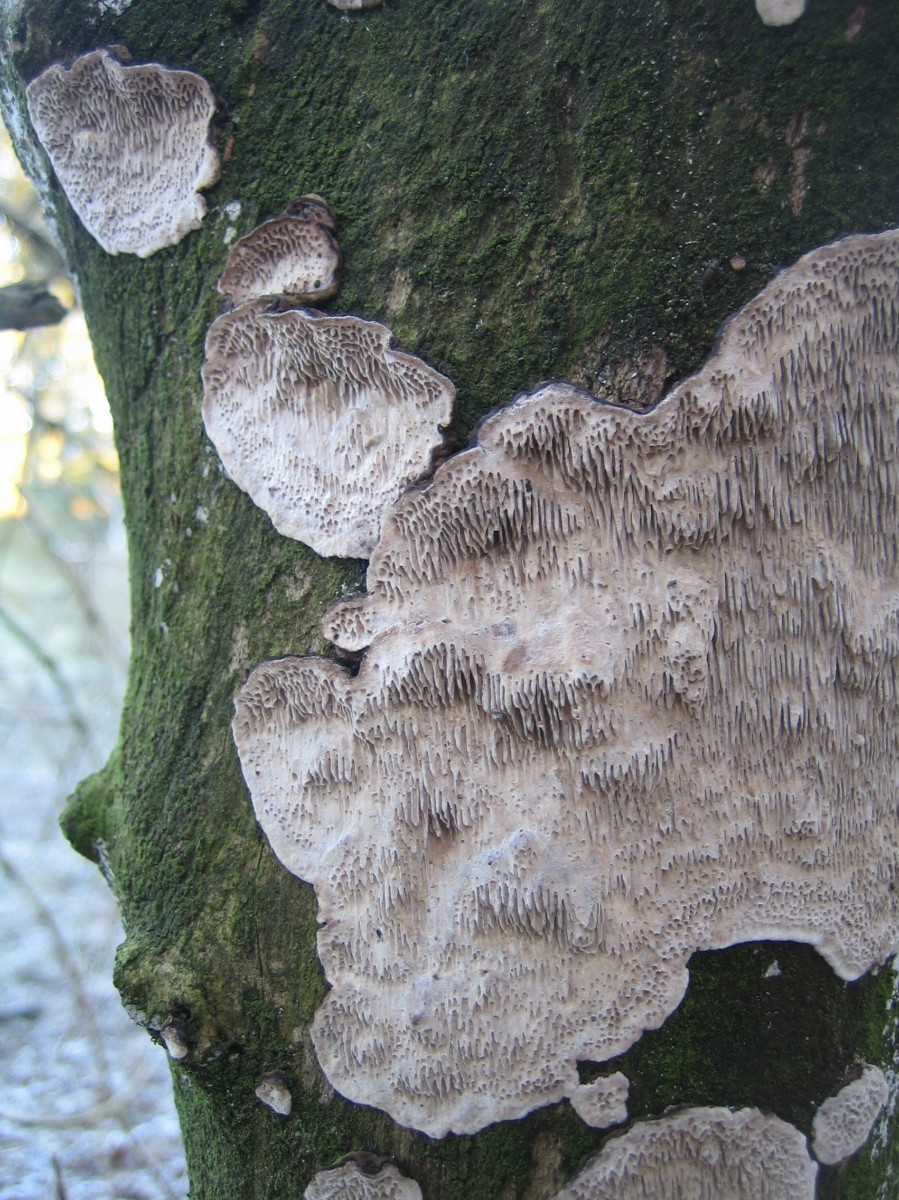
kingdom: Fungi
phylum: Basidiomycota
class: Agaricomycetes
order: Polyporales
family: Polyporaceae
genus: Podofomes
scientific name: Podofomes mollis
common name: blød begporesvamp
